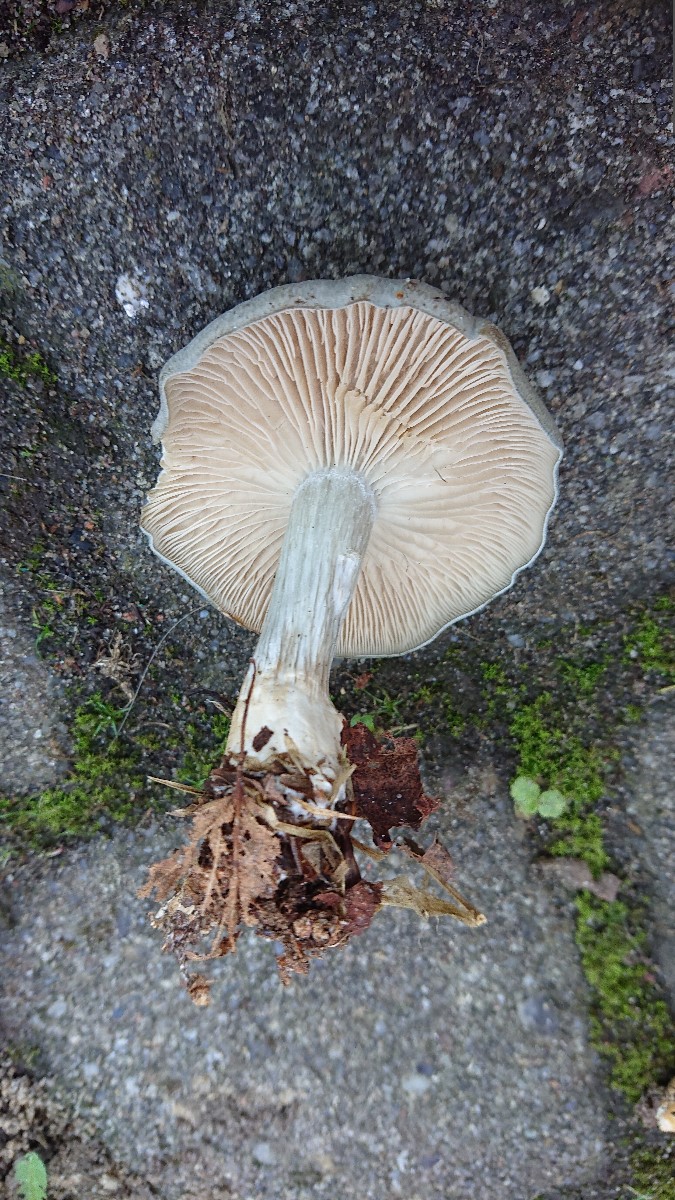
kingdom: Fungi
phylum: Basidiomycota
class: Agaricomycetes
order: Agaricales
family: Tricholomataceae
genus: Clitocybe
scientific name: Clitocybe odora
